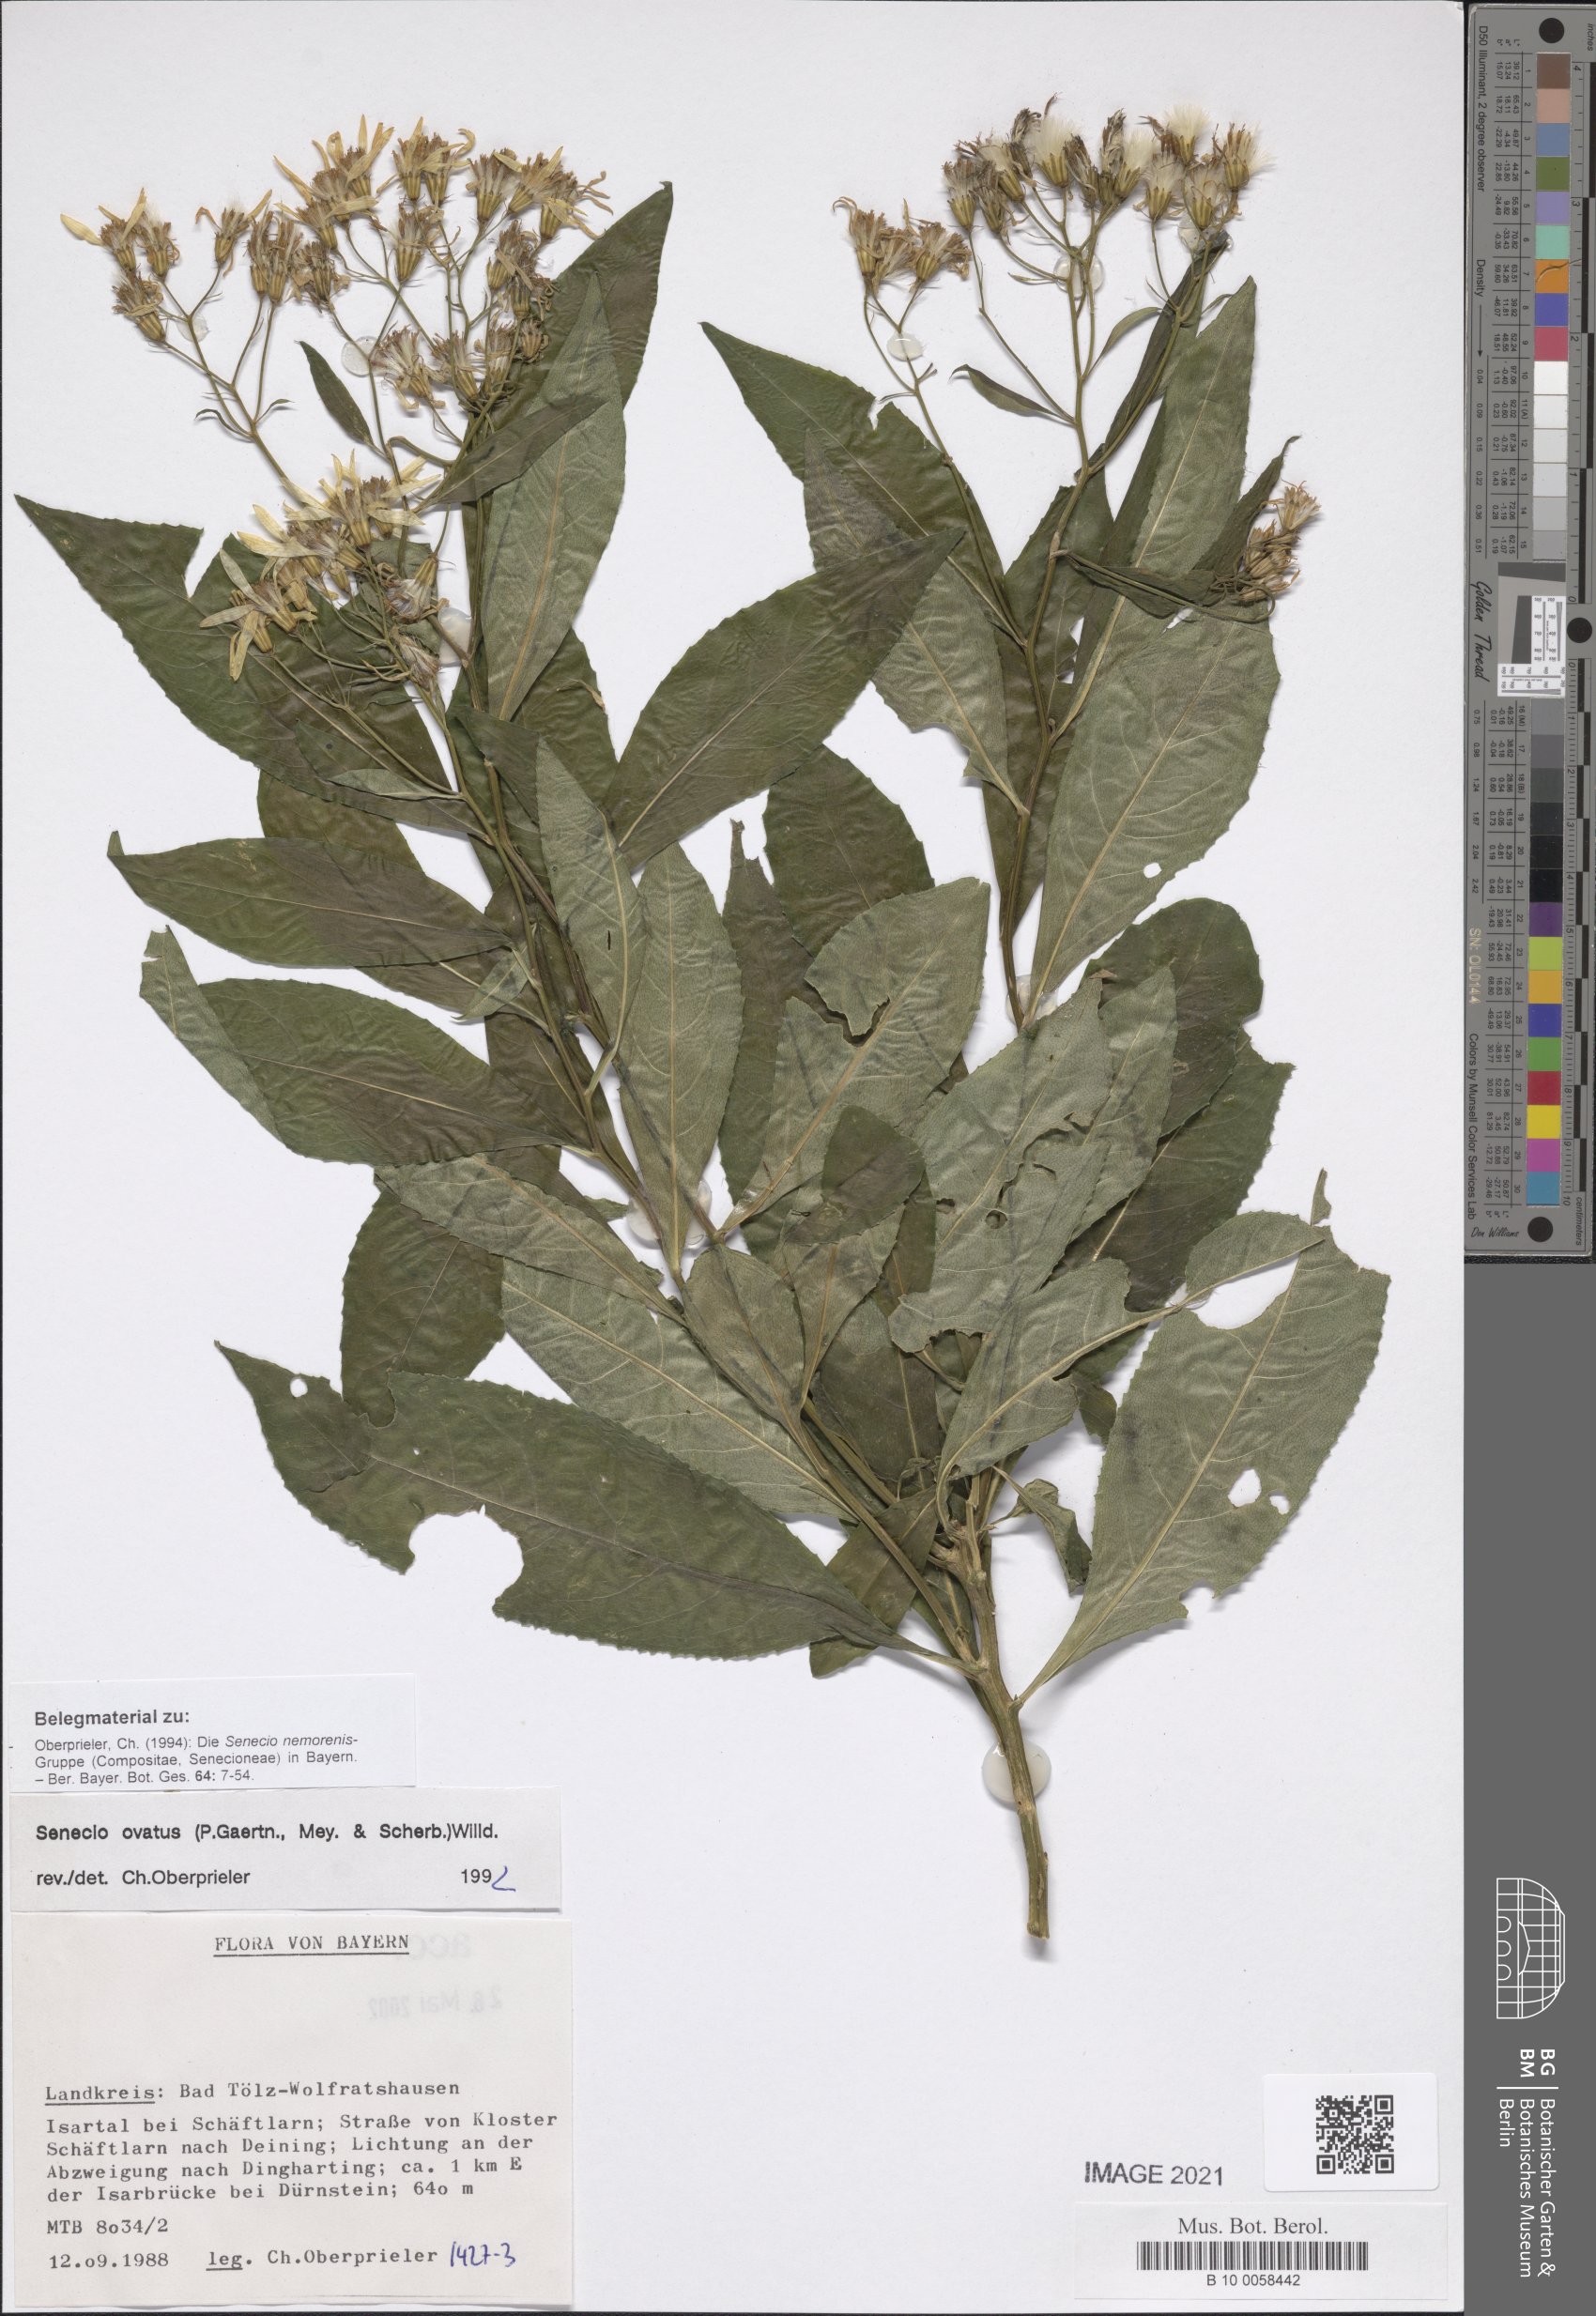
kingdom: Plantae
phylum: Tracheophyta
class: Magnoliopsida
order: Asterales
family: Asteraceae
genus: Senecio
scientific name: Senecio ovatus
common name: Wood ragwort
